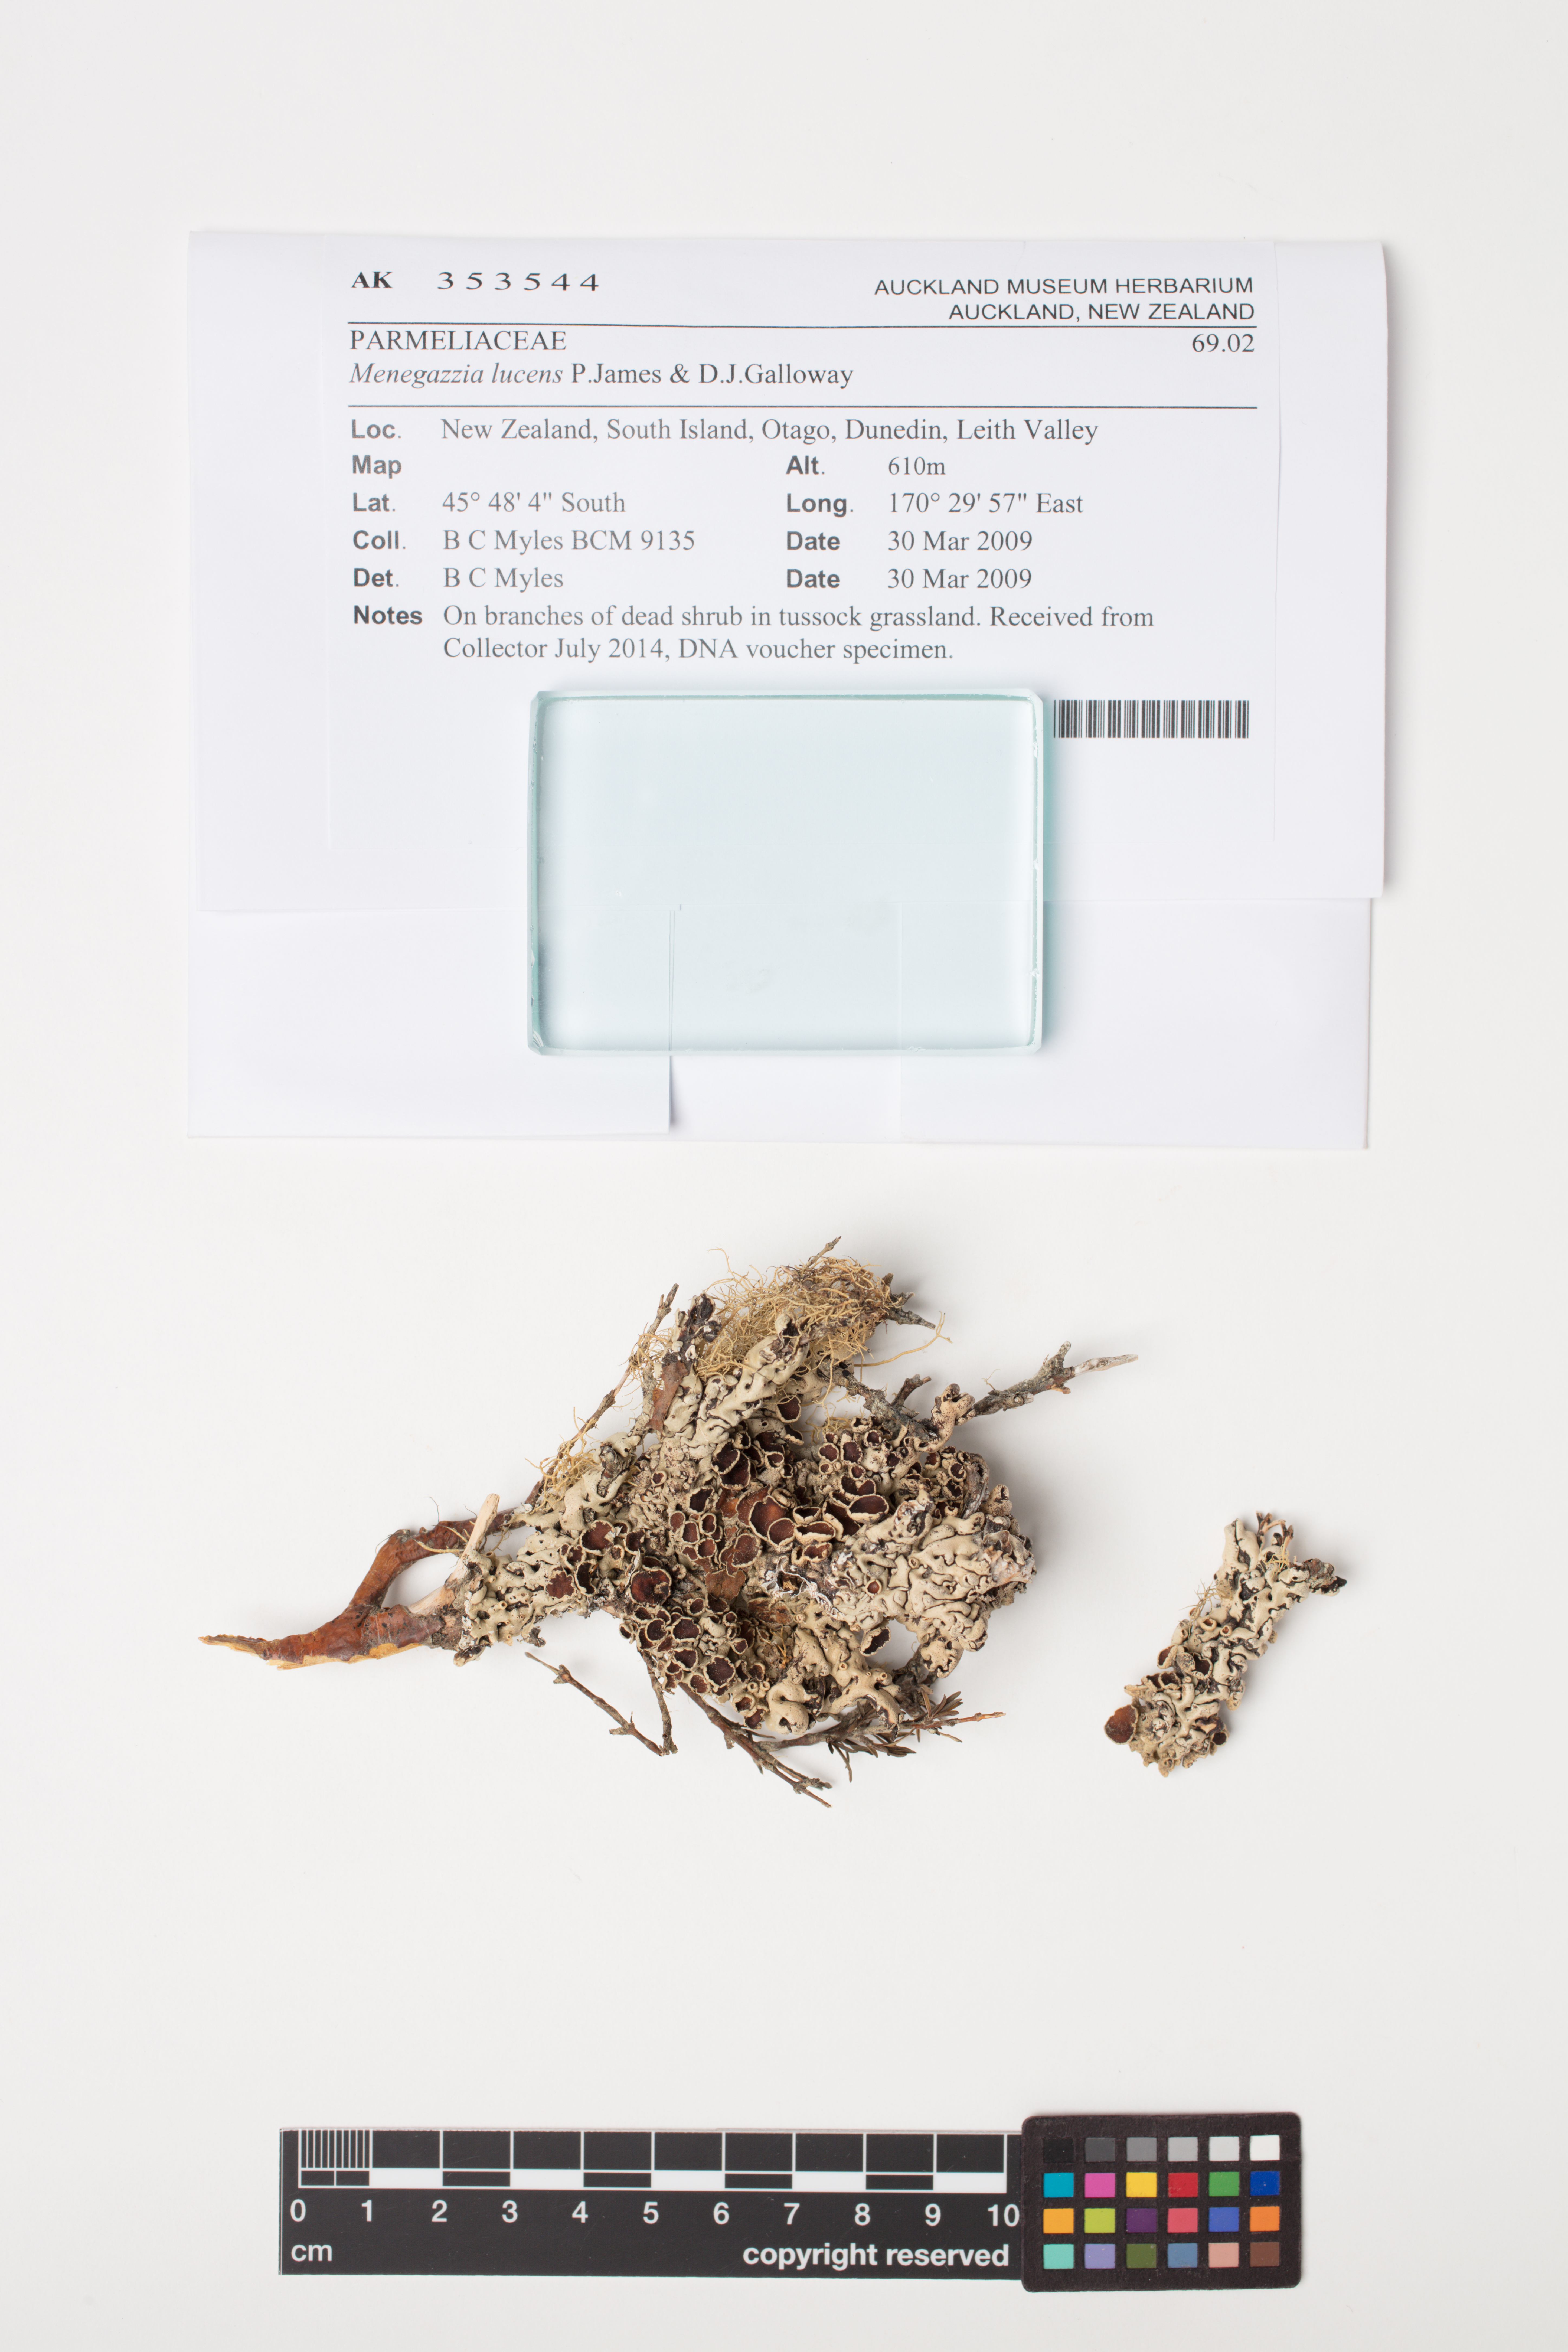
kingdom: Fungi
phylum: Ascomycota
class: Lecanoromycetes
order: Lecanorales
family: Parmeliaceae
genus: Menegazzia
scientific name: Menegazzia
